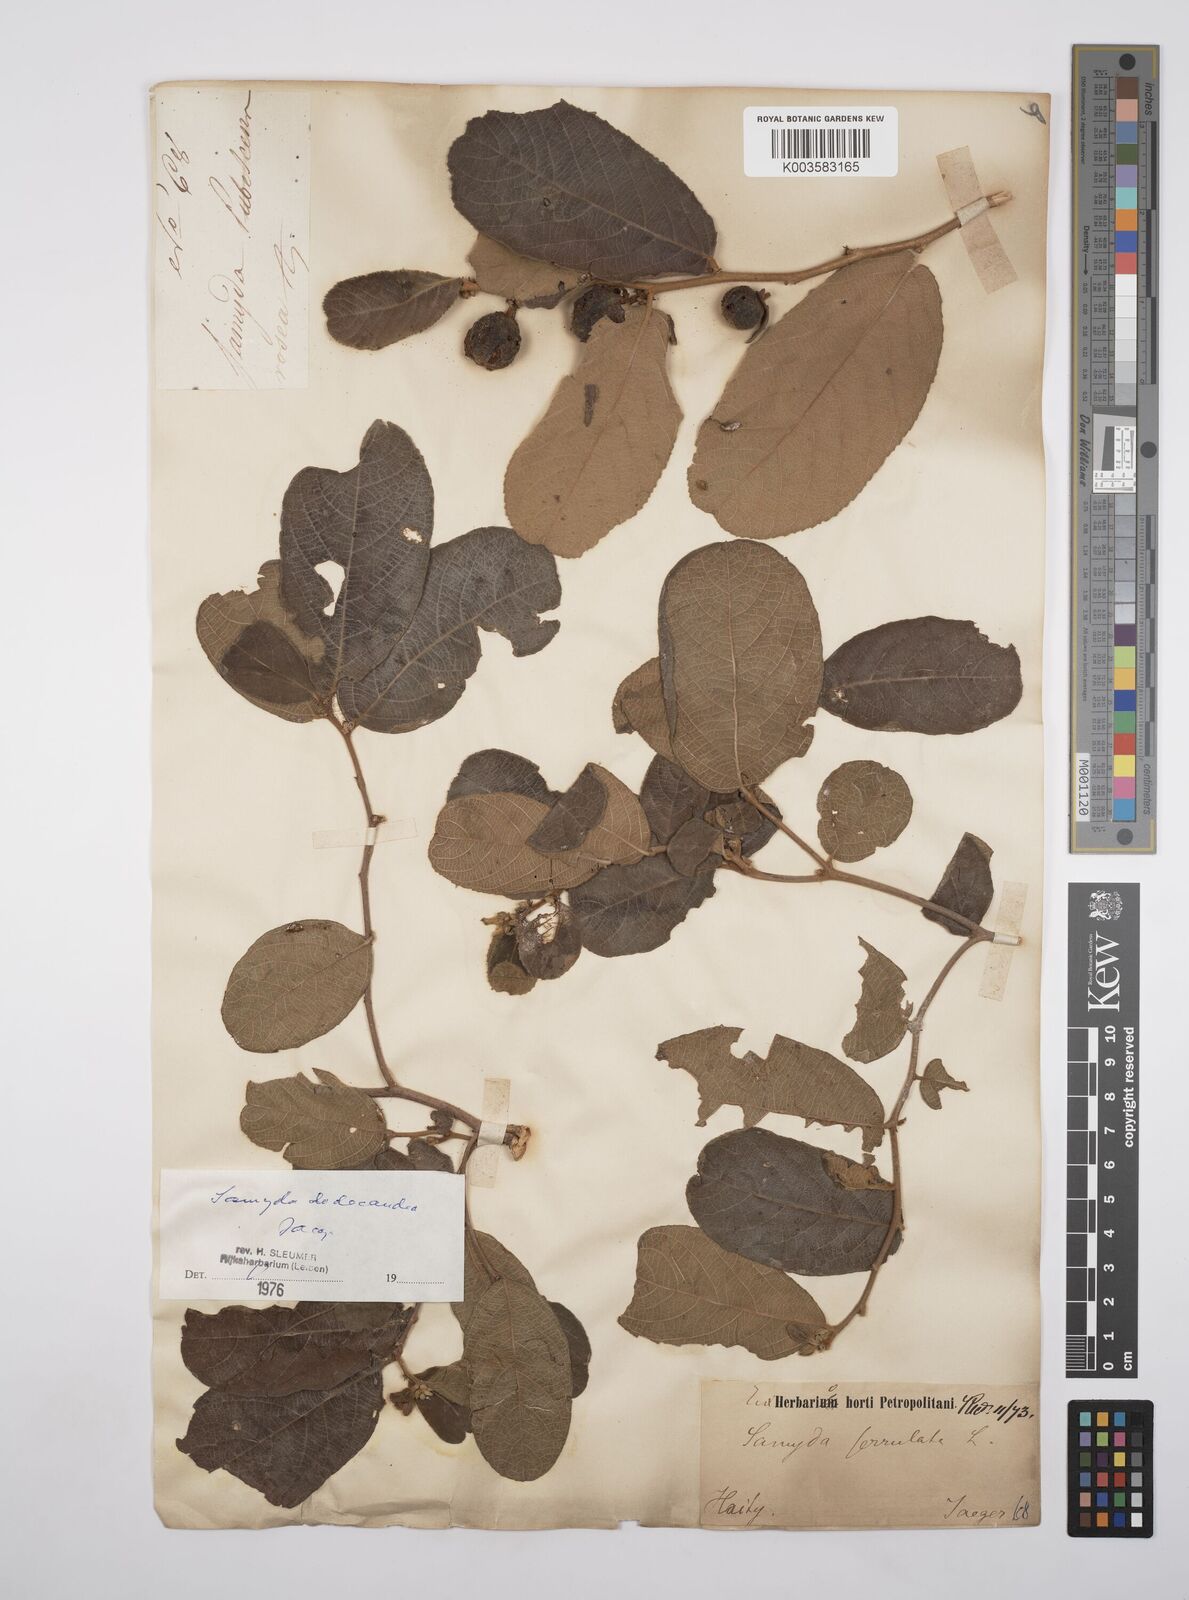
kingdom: Plantae
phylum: Tracheophyta
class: Magnoliopsida
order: Malpighiales
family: Salicaceae
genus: Casearia
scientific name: Casearia dodecandra
